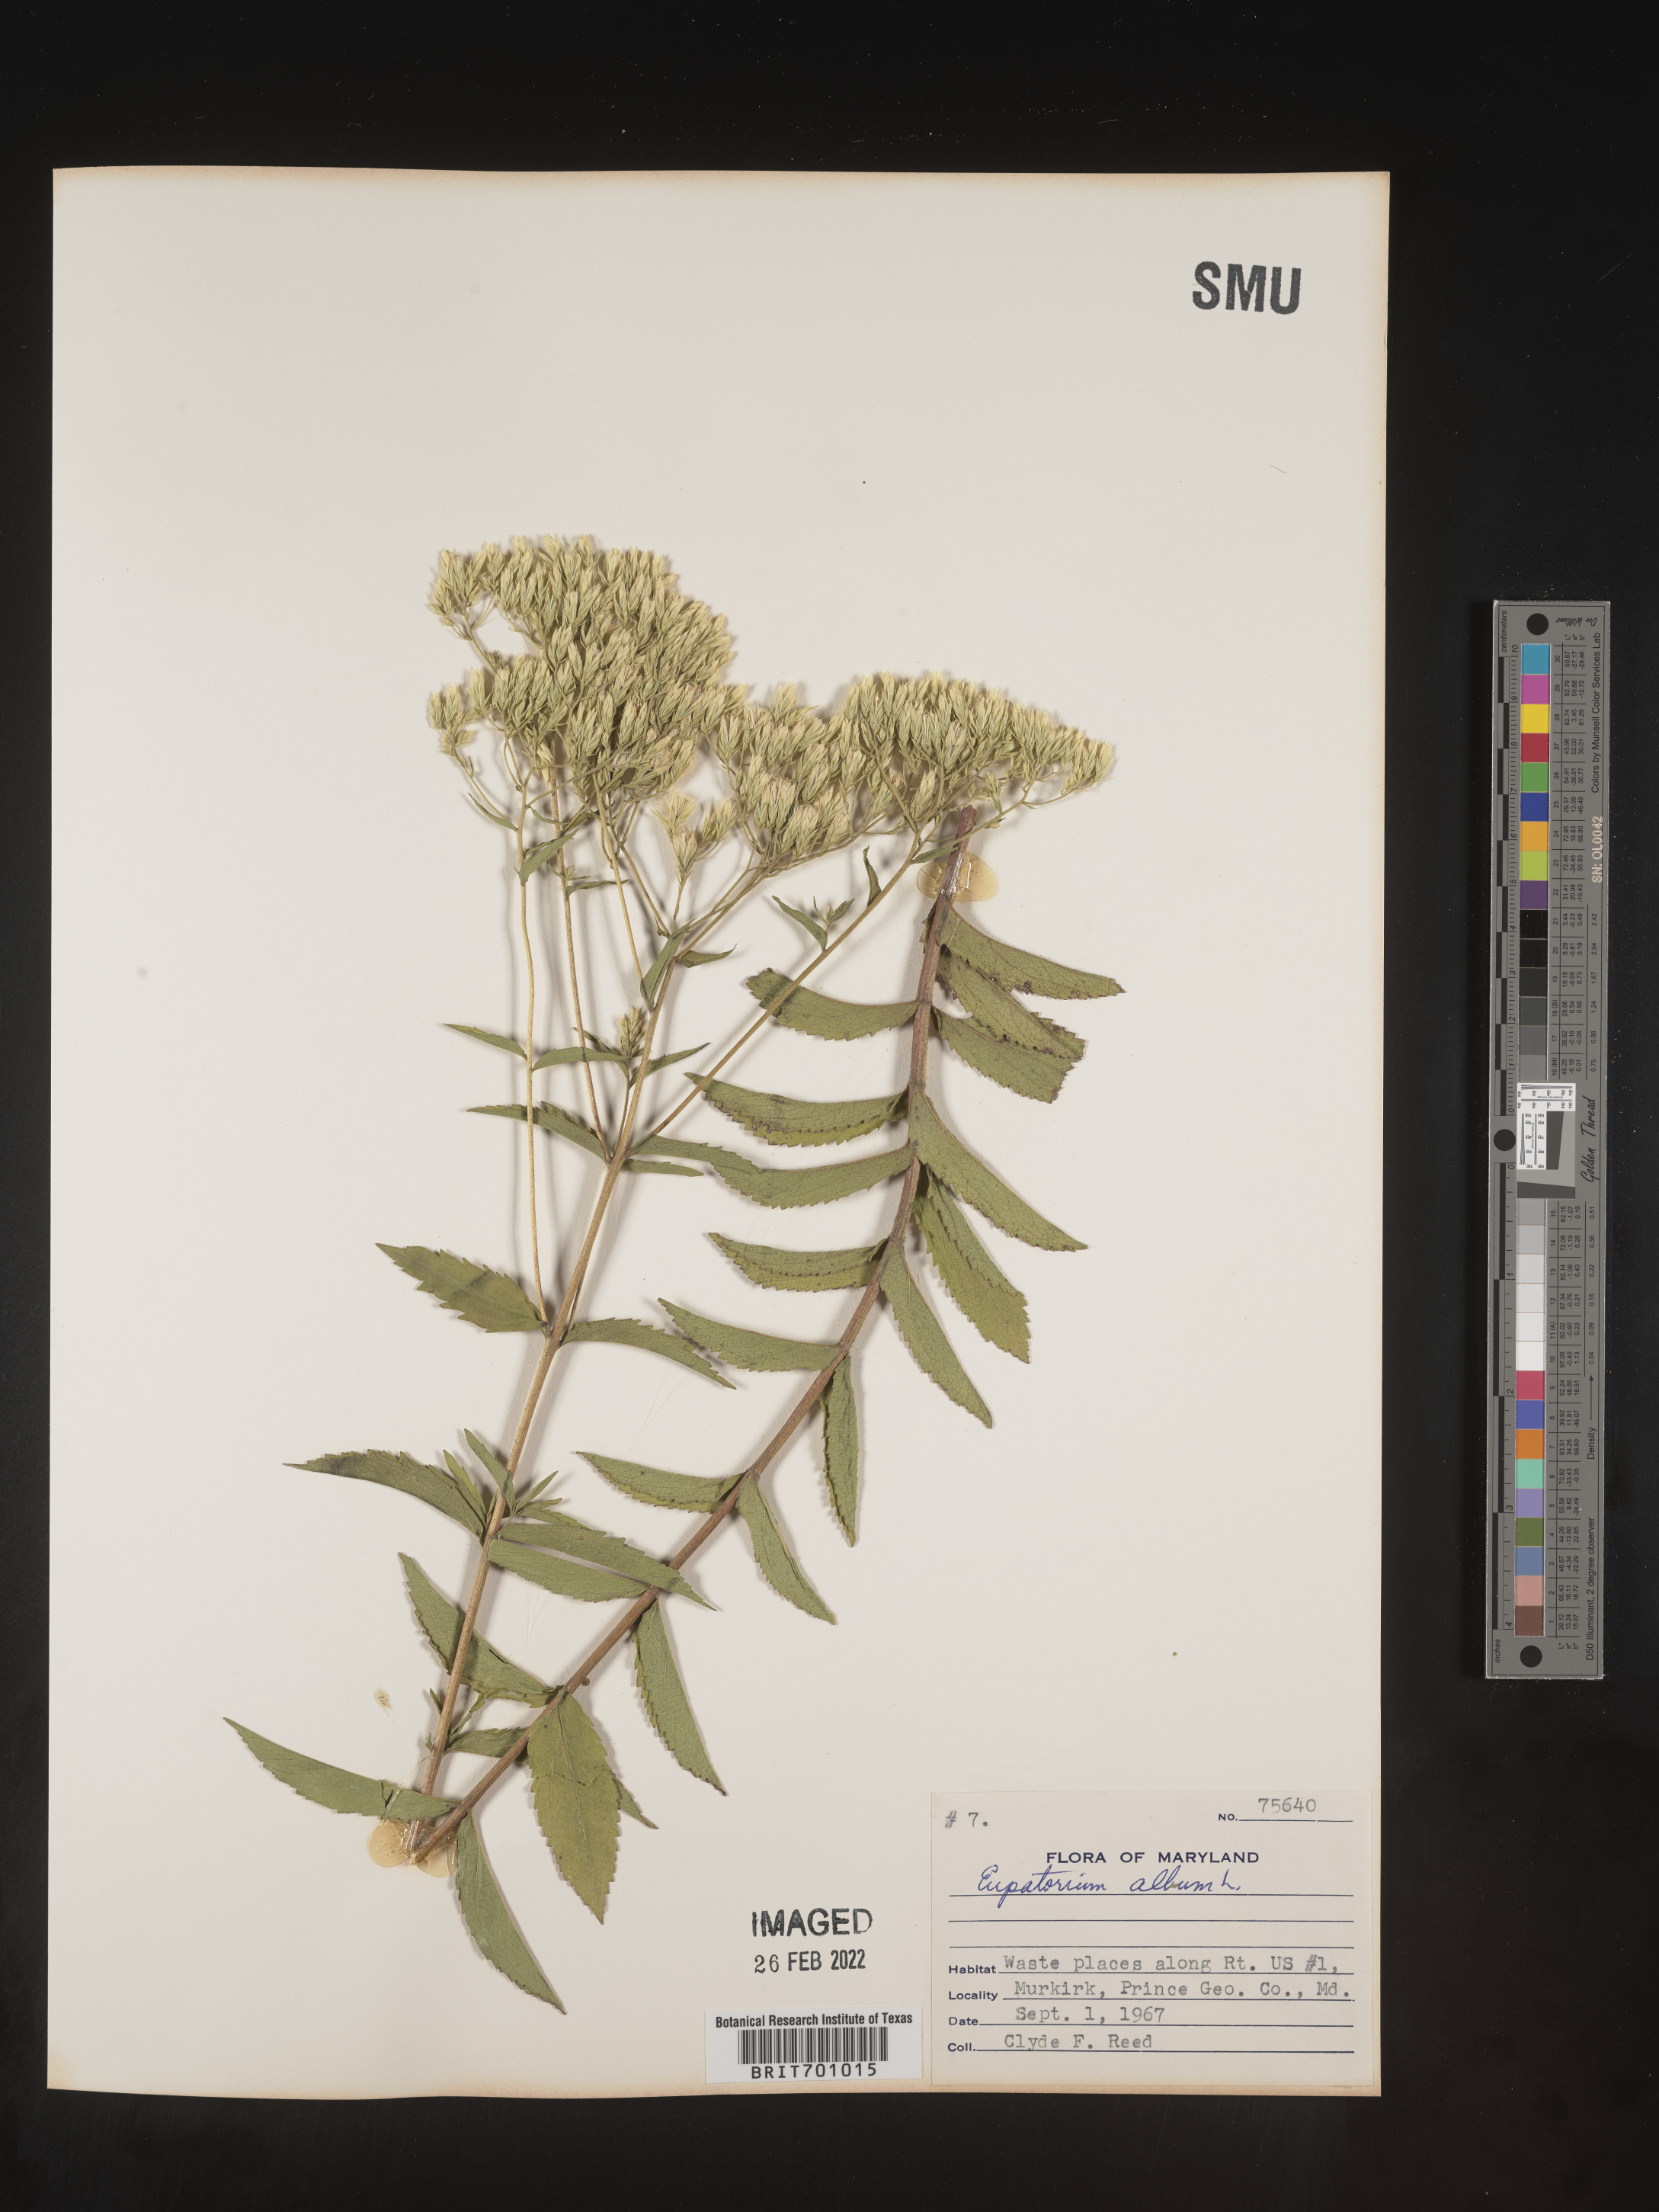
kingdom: Plantae
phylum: Tracheophyta
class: Magnoliopsida
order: Asterales
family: Asteraceae
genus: Eupatorium
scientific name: Eupatorium album
